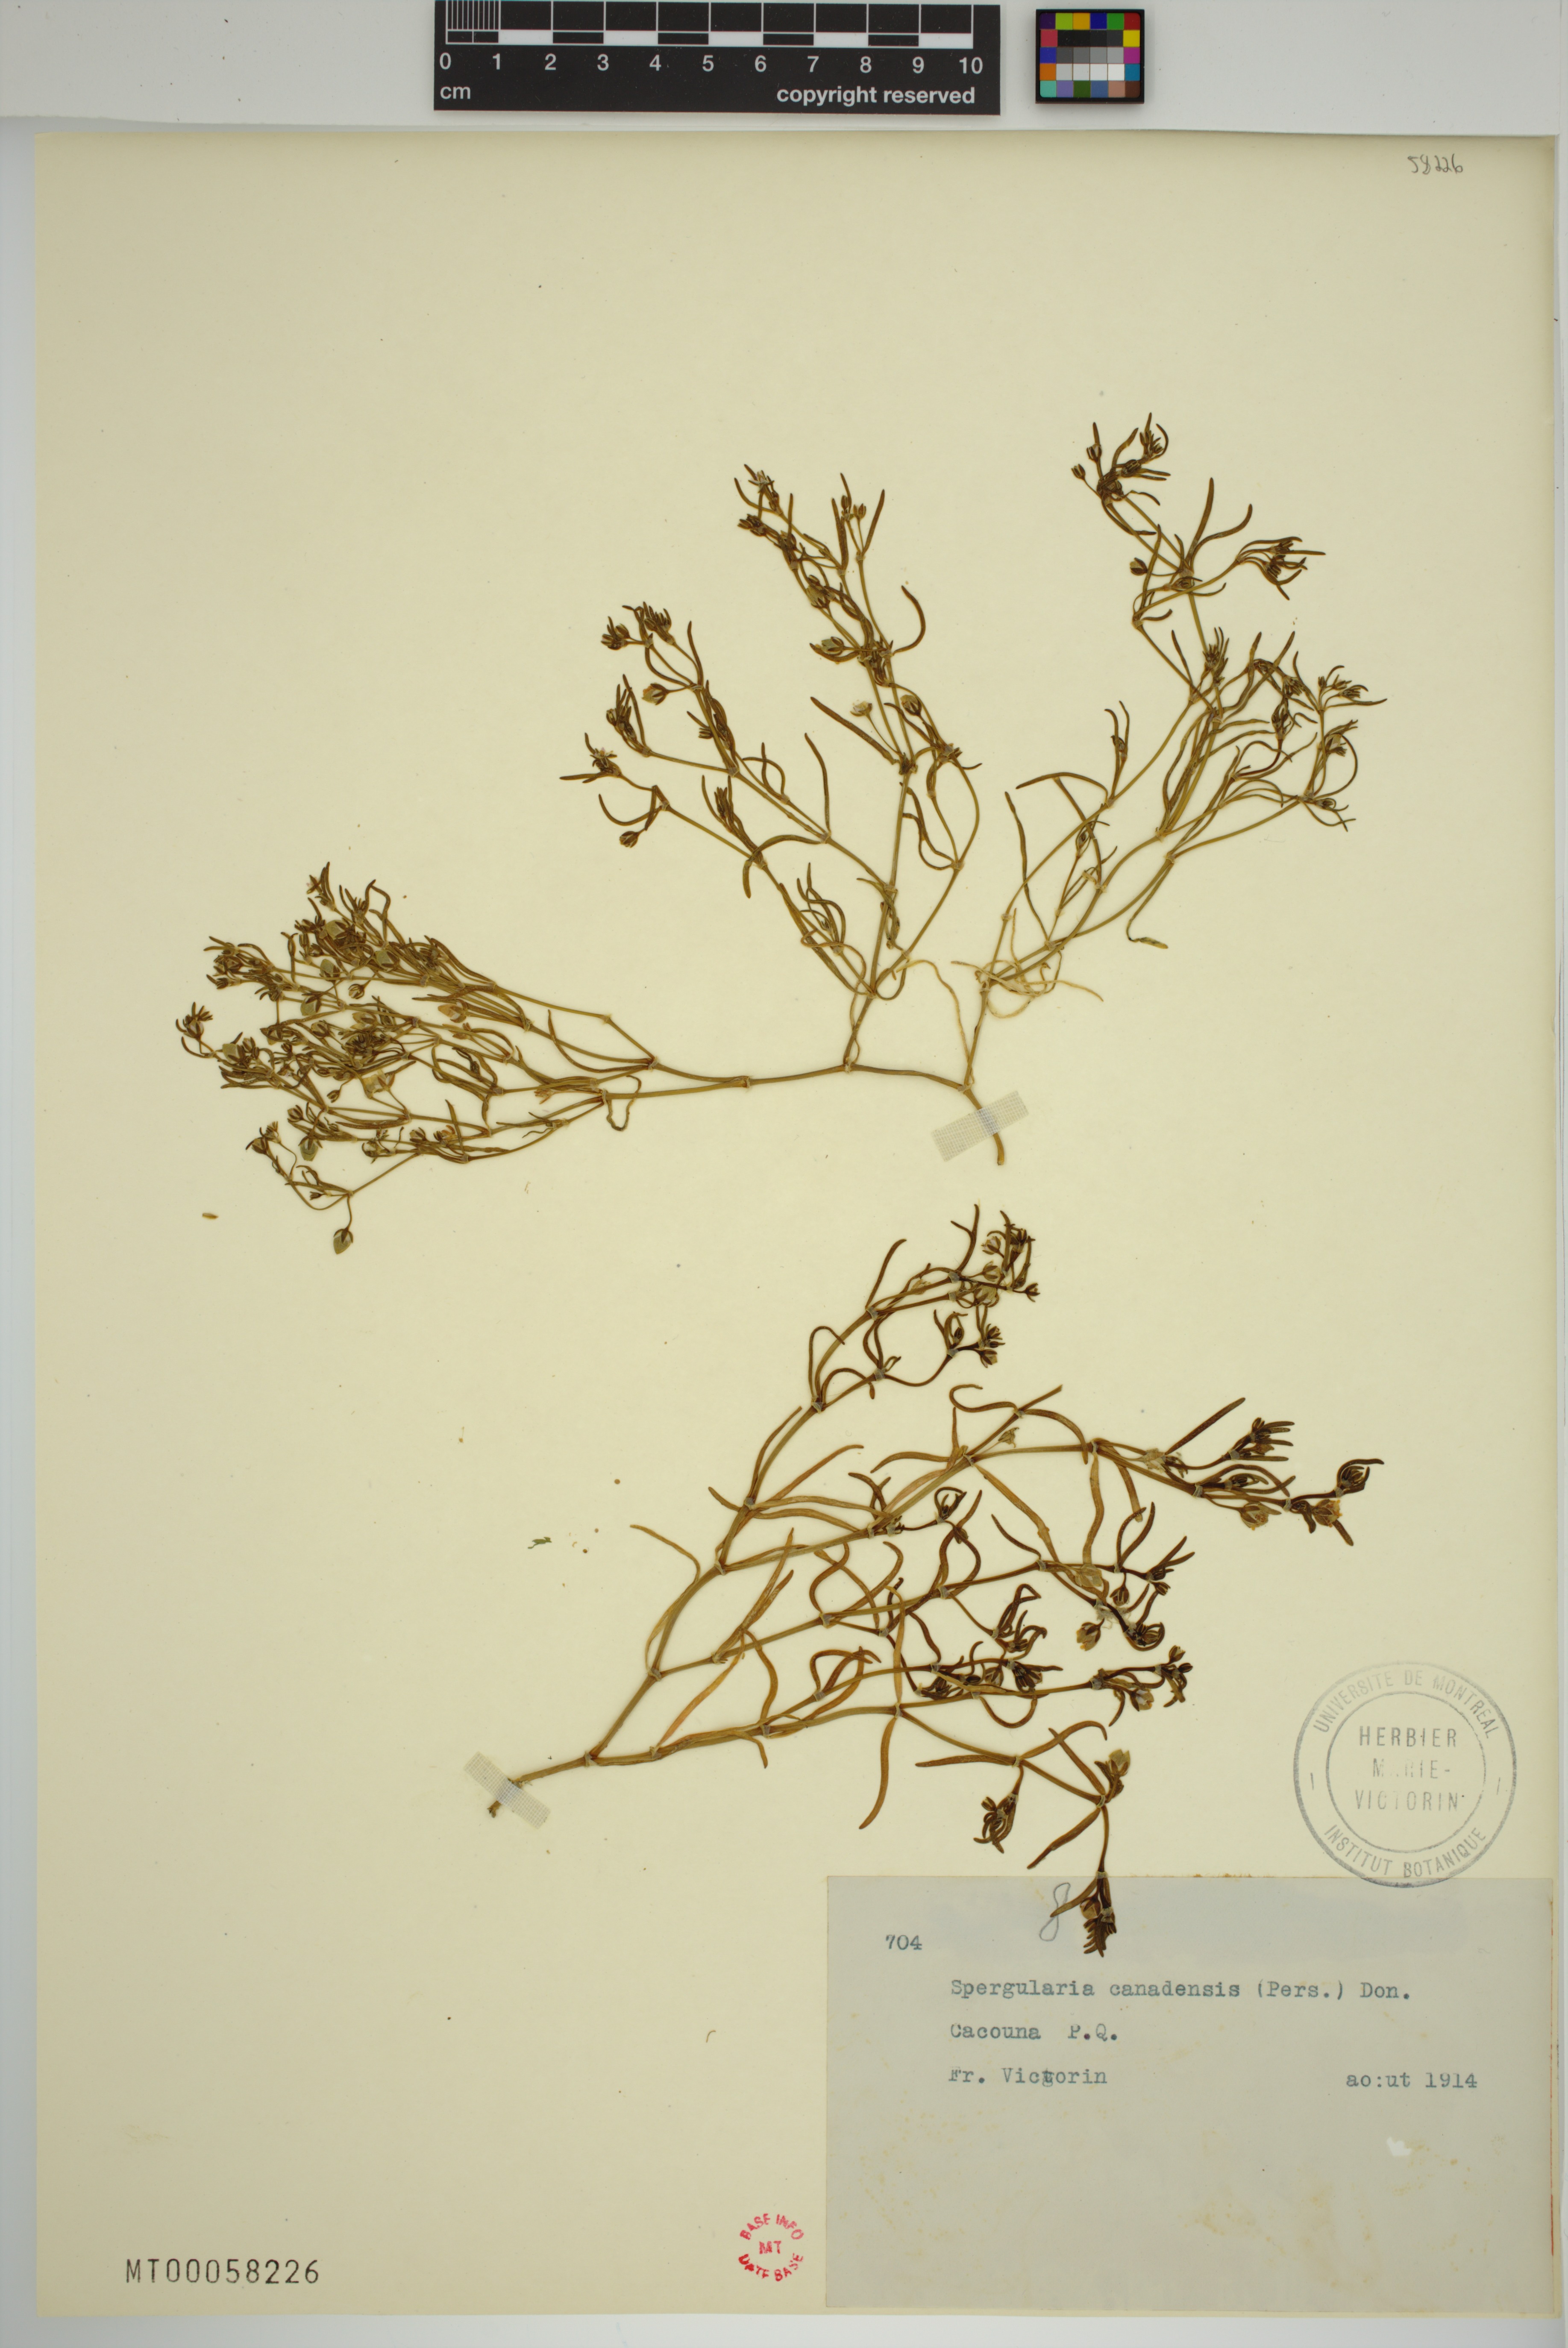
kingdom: Plantae
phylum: Tracheophyta
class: Magnoliopsida
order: Caryophyllales
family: Caryophyllaceae
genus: Spergularia
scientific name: Spergularia canadensis
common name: Canada sand-spurrey
